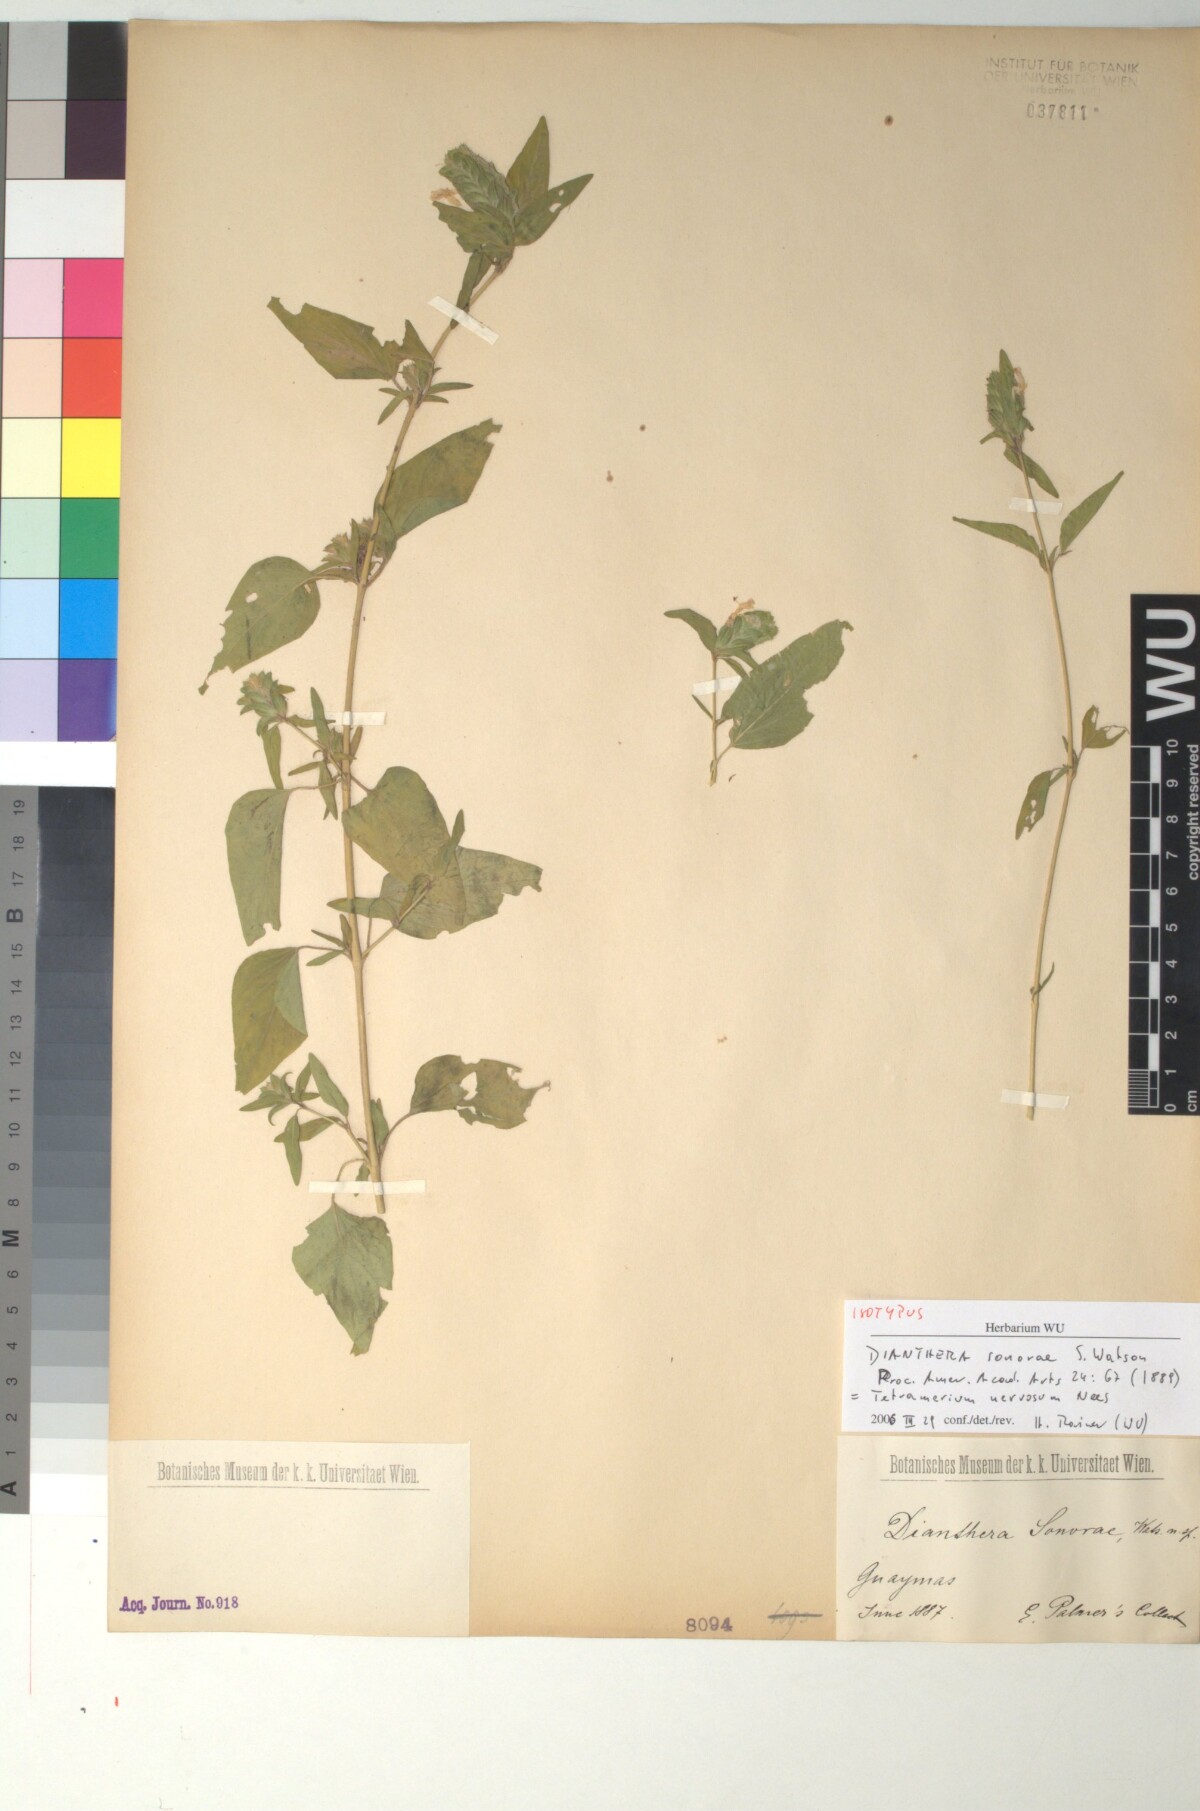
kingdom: Plantae
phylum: Tracheophyta
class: Magnoliopsida
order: Lamiales
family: Acanthaceae
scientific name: Acanthaceae
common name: Acanthaceae
